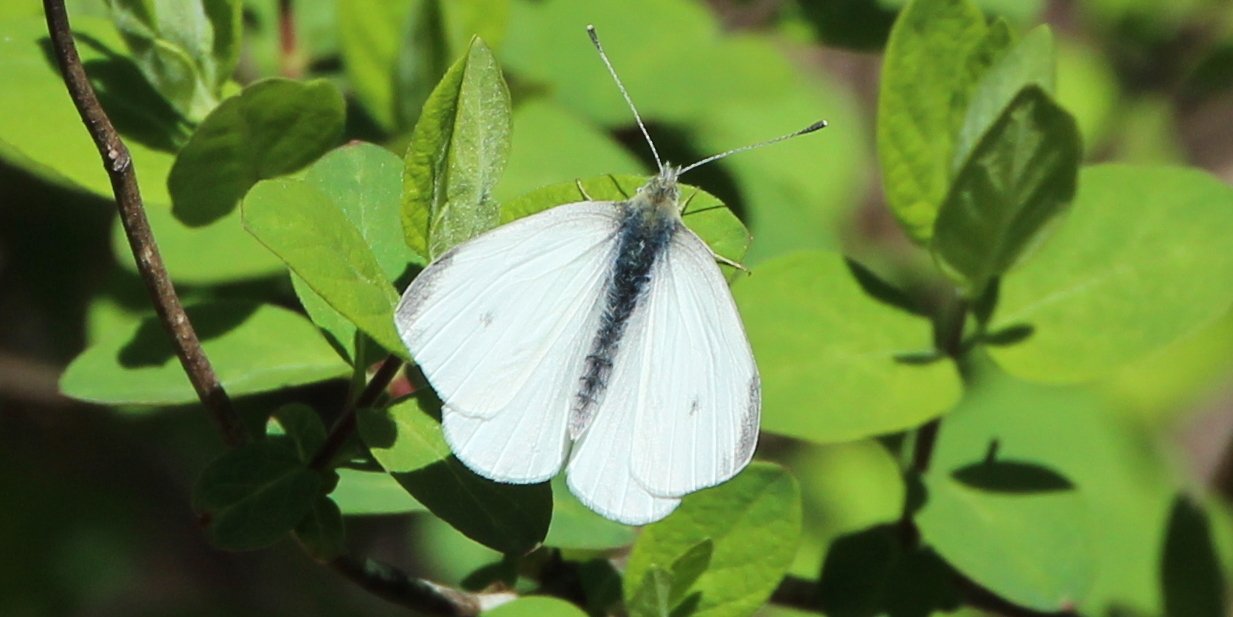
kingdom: Animalia
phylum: Arthropoda
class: Insecta
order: Lepidoptera
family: Pieridae
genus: Pieris
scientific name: Pieris
